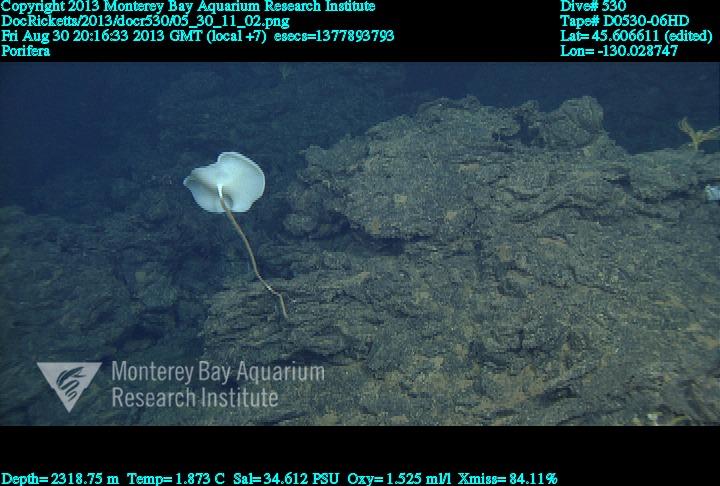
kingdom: Animalia
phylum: Porifera
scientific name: Porifera
